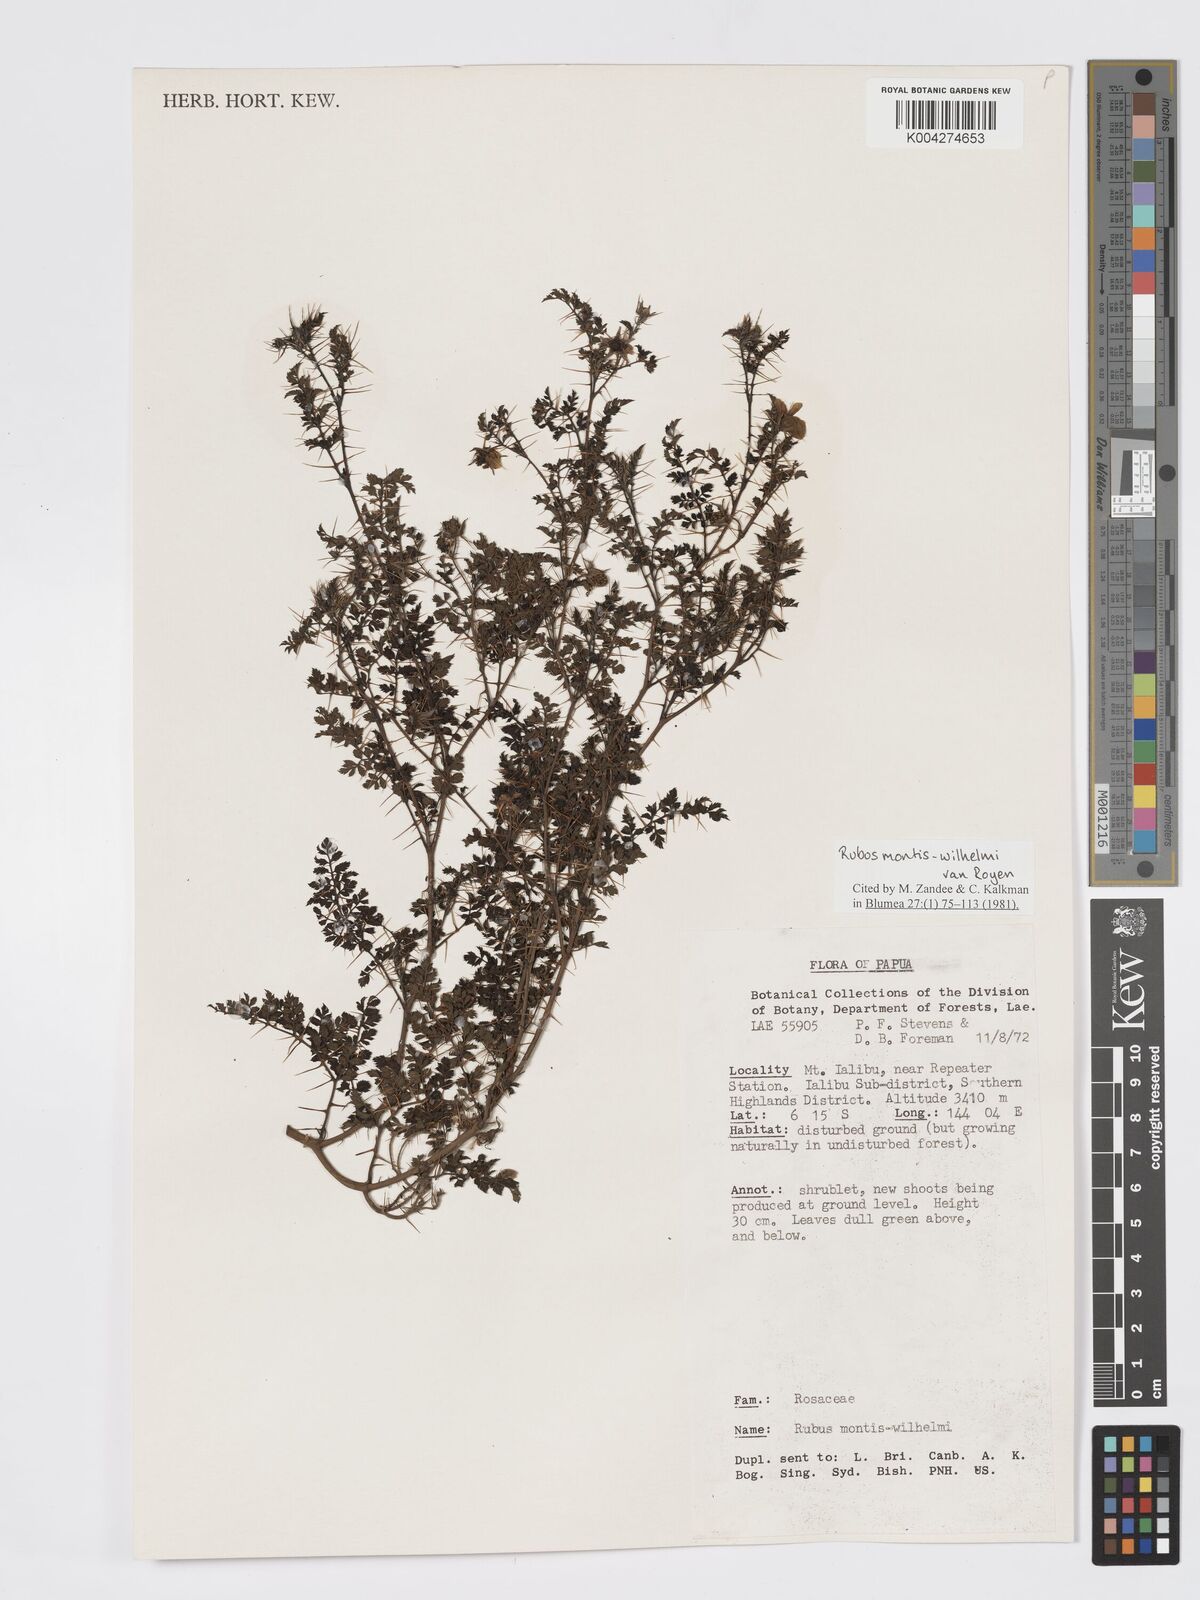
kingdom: Plantae
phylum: Tracheophyta
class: Magnoliopsida
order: Rosales
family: Rosaceae
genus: Rubus
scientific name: Rubus montis-wilhelmii
